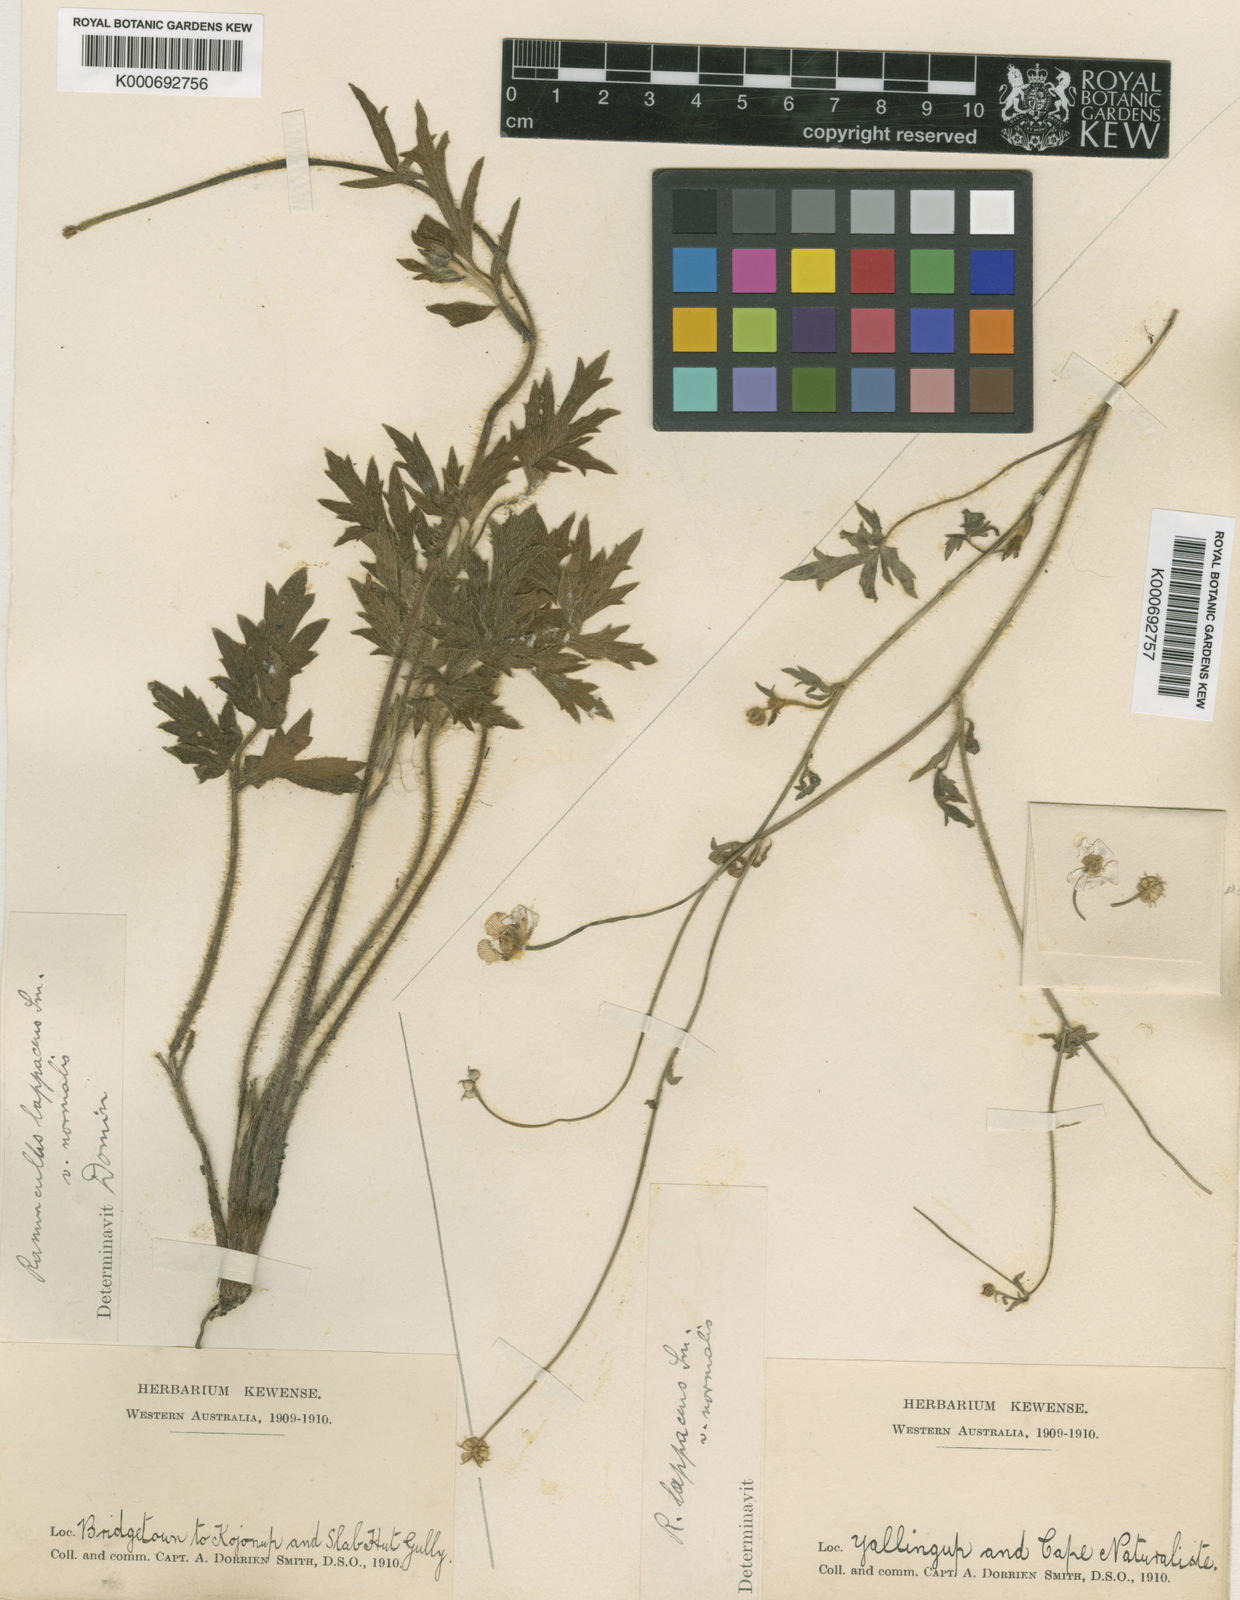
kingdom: Plantae
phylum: Tracheophyta
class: Magnoliopsida
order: Ranunculales
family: Ranunculaceae
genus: Ranunculus
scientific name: Ranunculus lappaceus
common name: Australian buttercup
